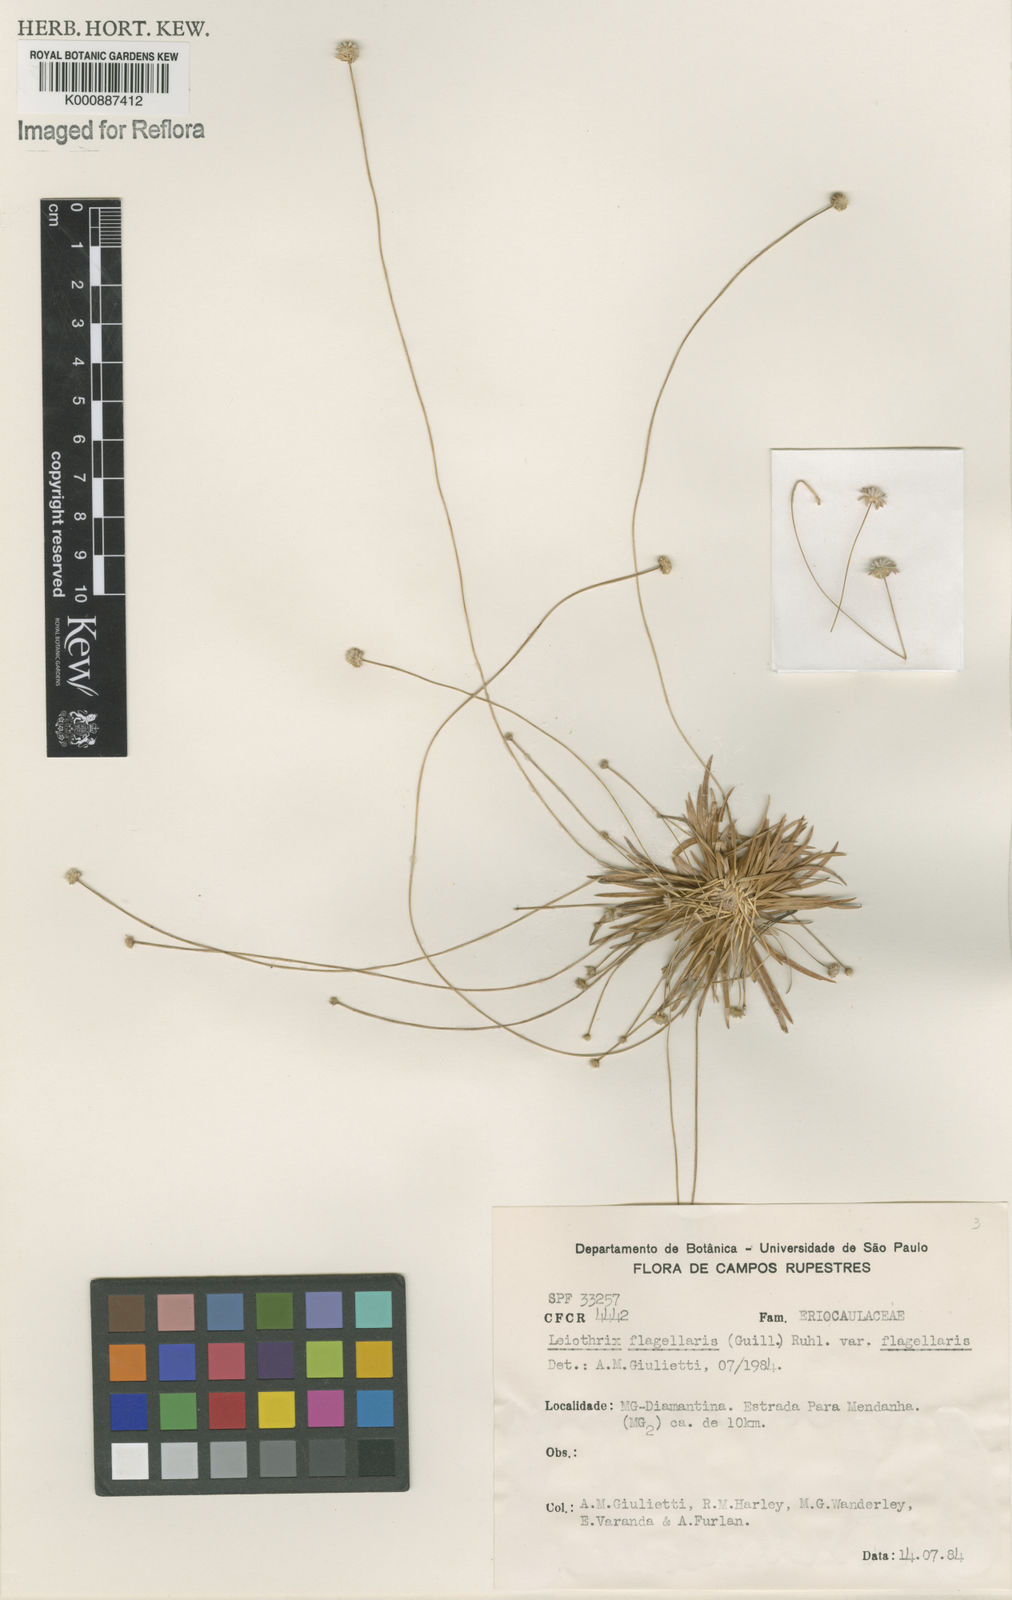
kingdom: Plantae
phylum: Tracheophyta
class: Liliopsida
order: Poales
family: Eriocaulaceae
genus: Leiothrix
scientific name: Leiothrix flagellaris
